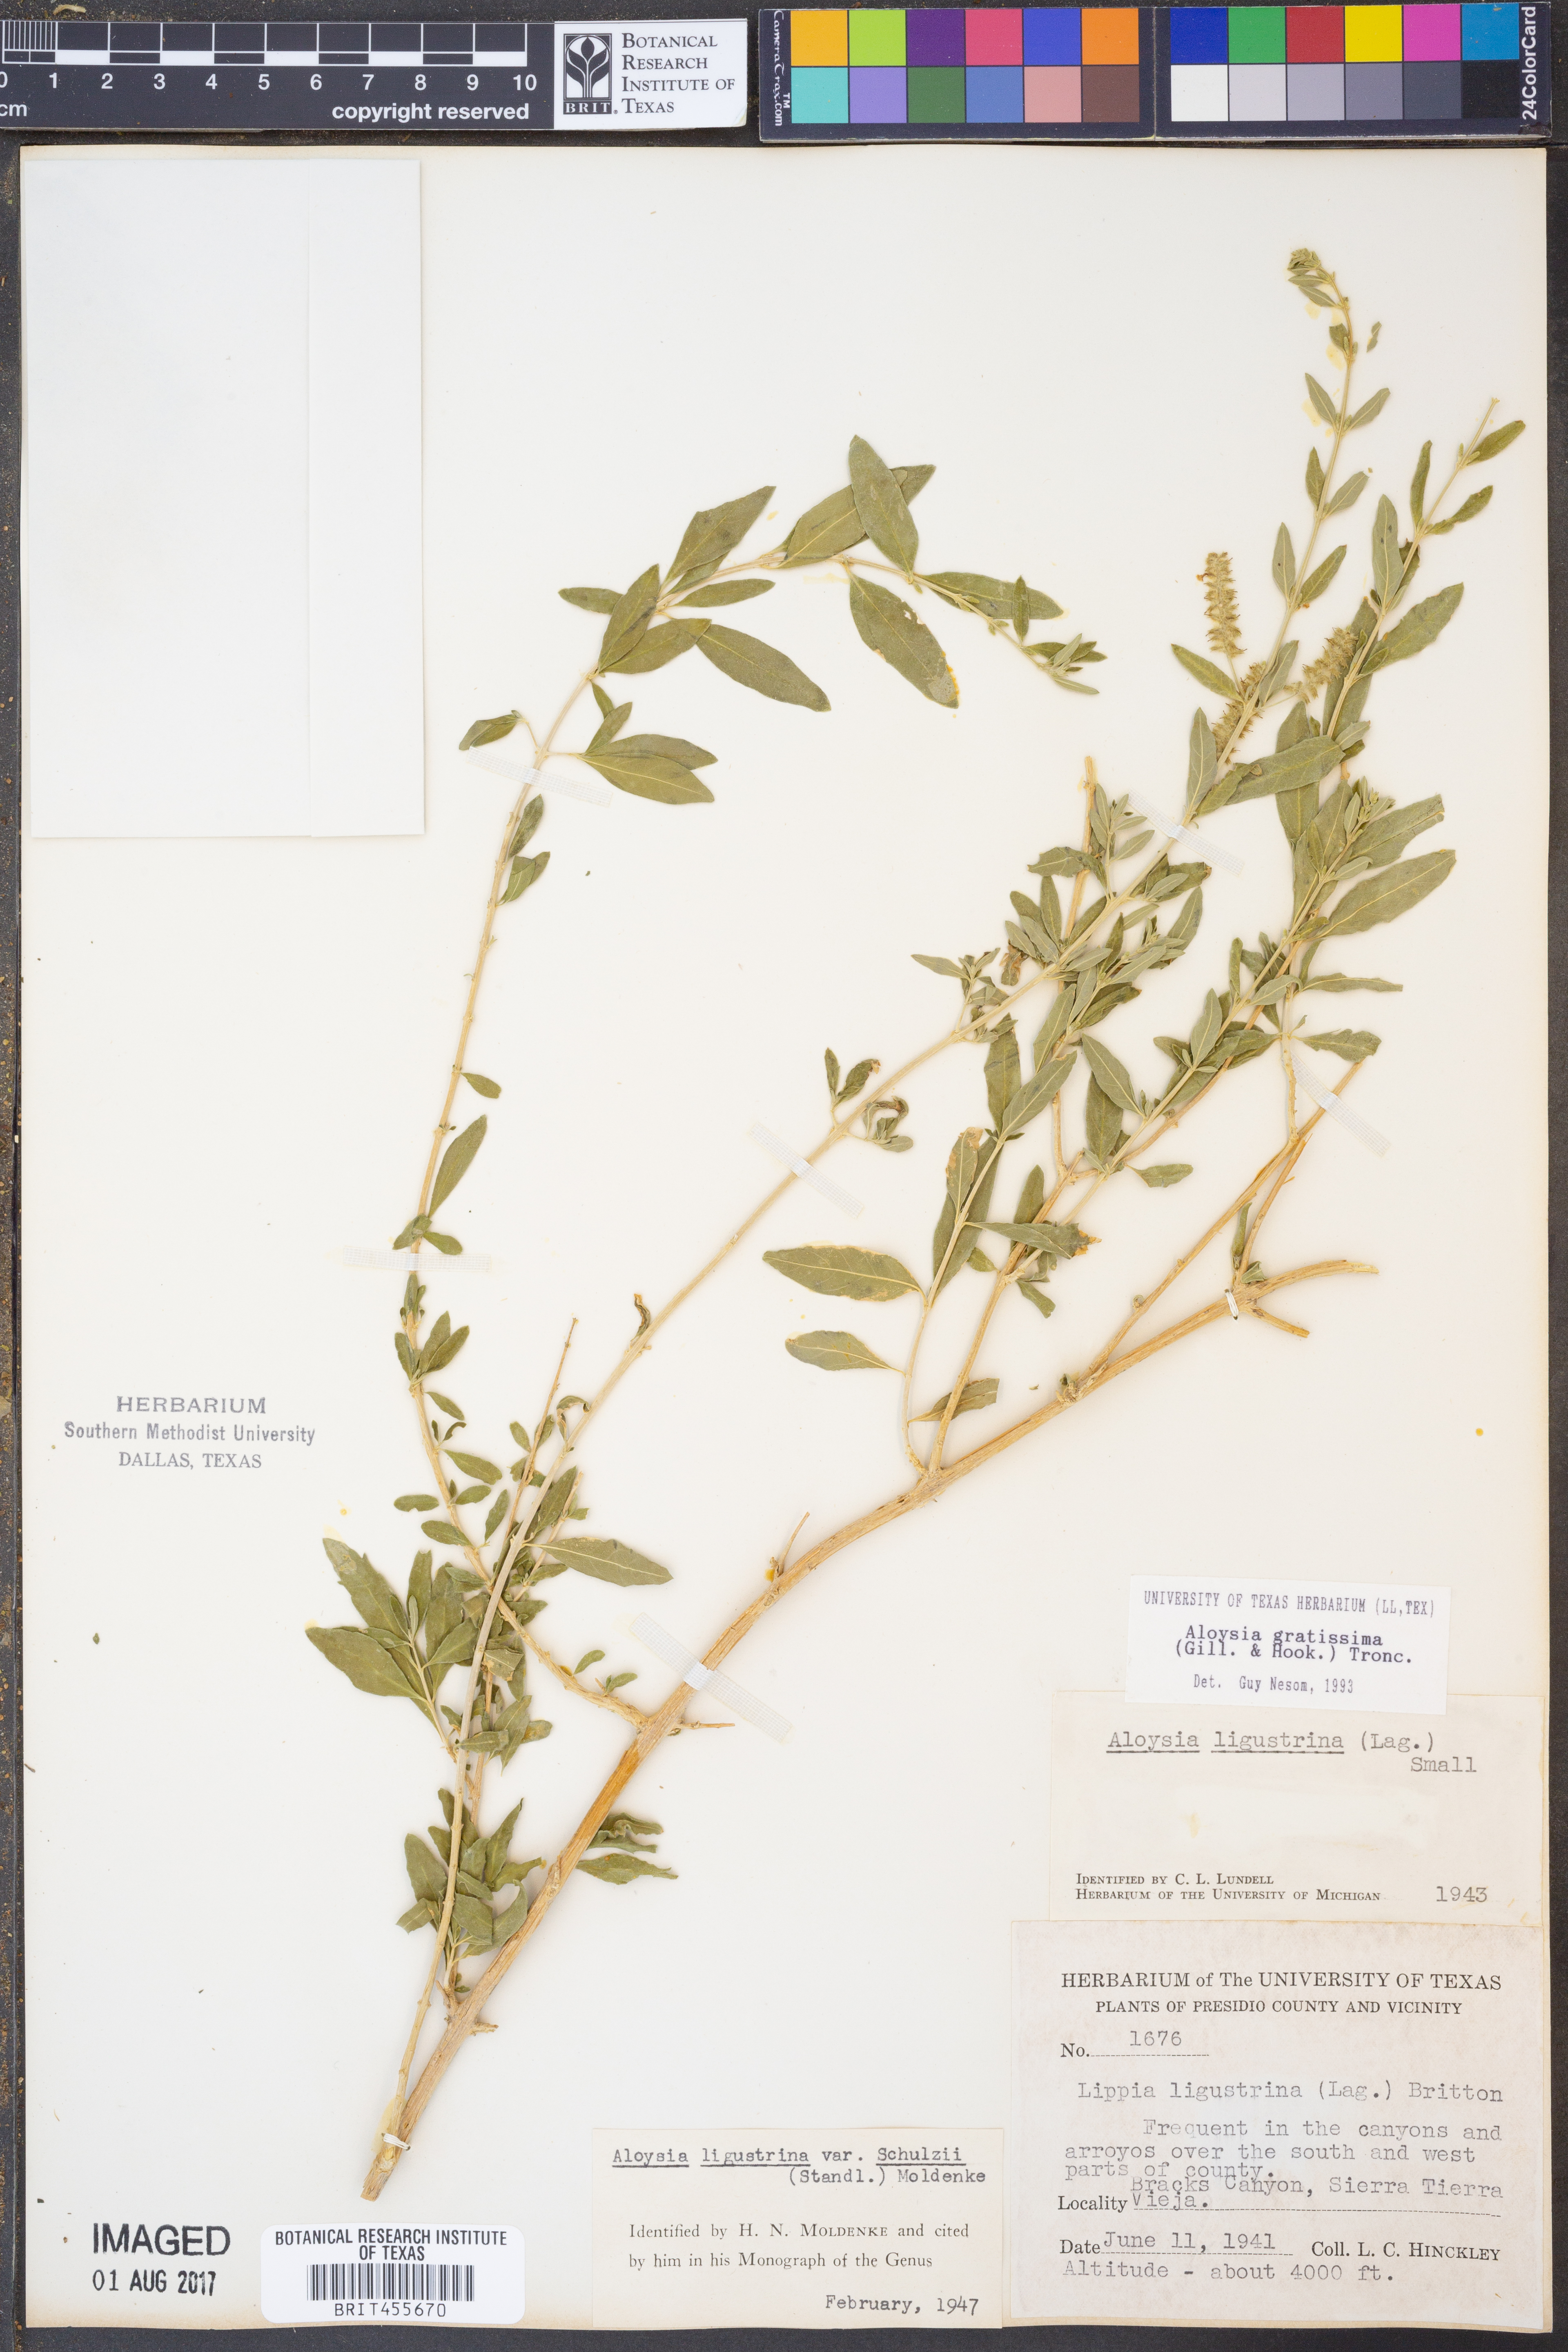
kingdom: Plantae
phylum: Tracheophyta
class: Magnoliopsida
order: Lamiales
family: Verbenaceae
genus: Aloysia
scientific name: Aloysia gratissima
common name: Common bee-brush
